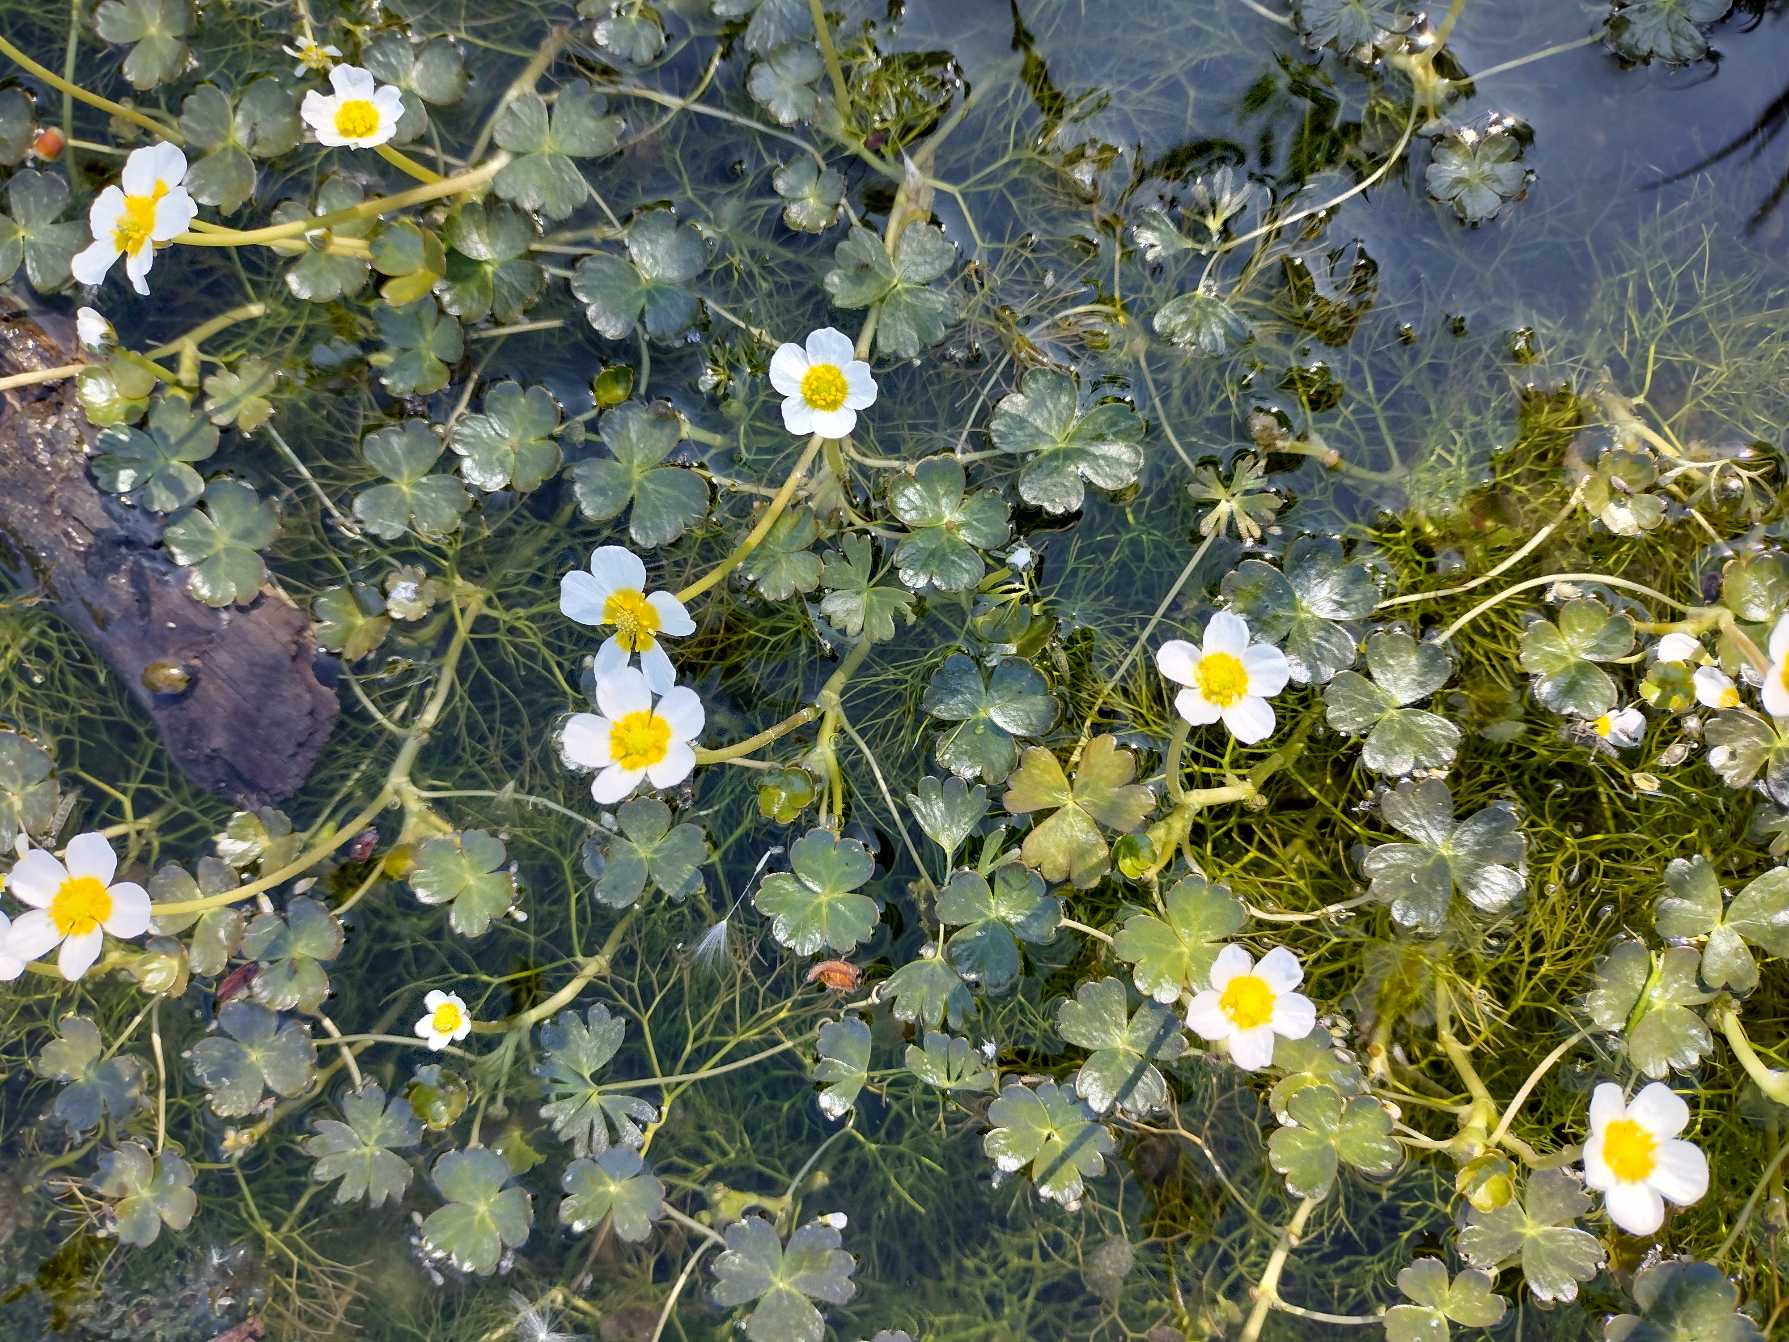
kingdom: Plantae
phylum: Tracheophyta
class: Magnoliopsida
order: Ranunculales
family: Ranunculaceae
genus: Ranunculus
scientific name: Ranunculus aquatilis
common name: Almindelig vandranunkel
